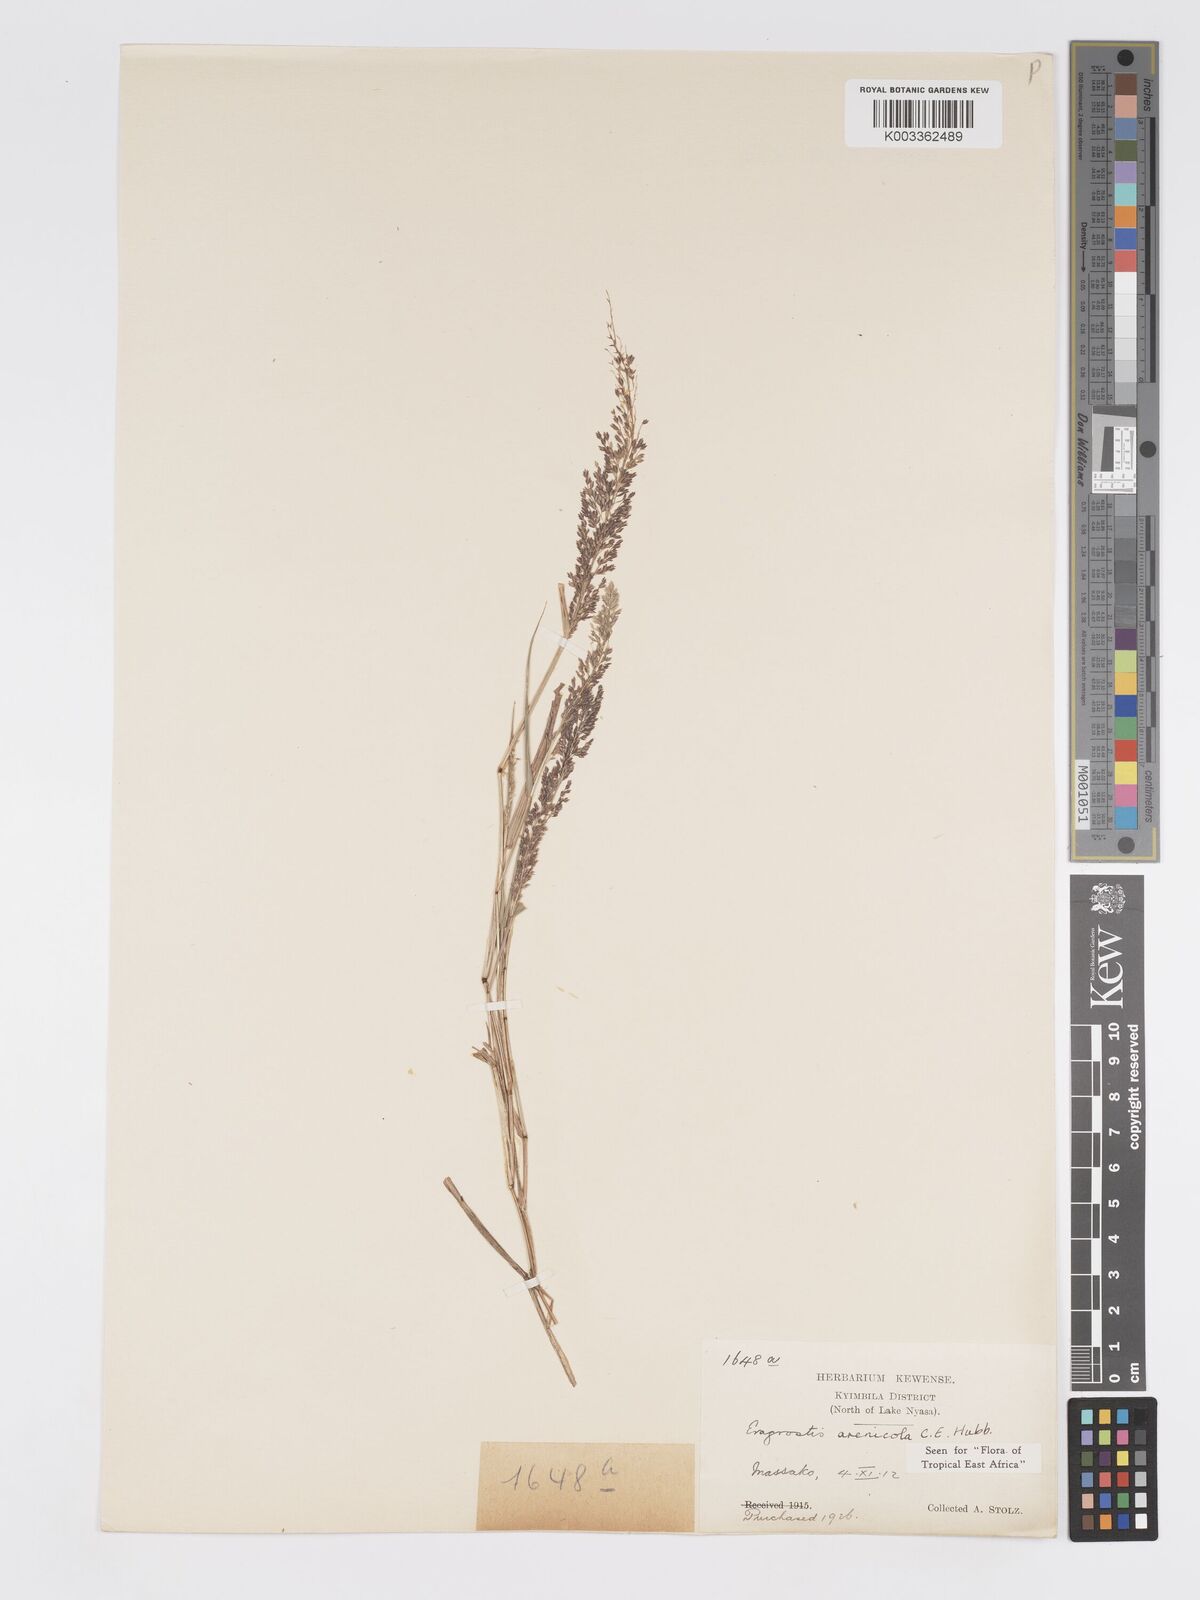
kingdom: Plantae
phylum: Tracheophyta
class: Liliopsida
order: Poales
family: Poaceae
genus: Eragrostis
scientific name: Eragrostis arenicola
